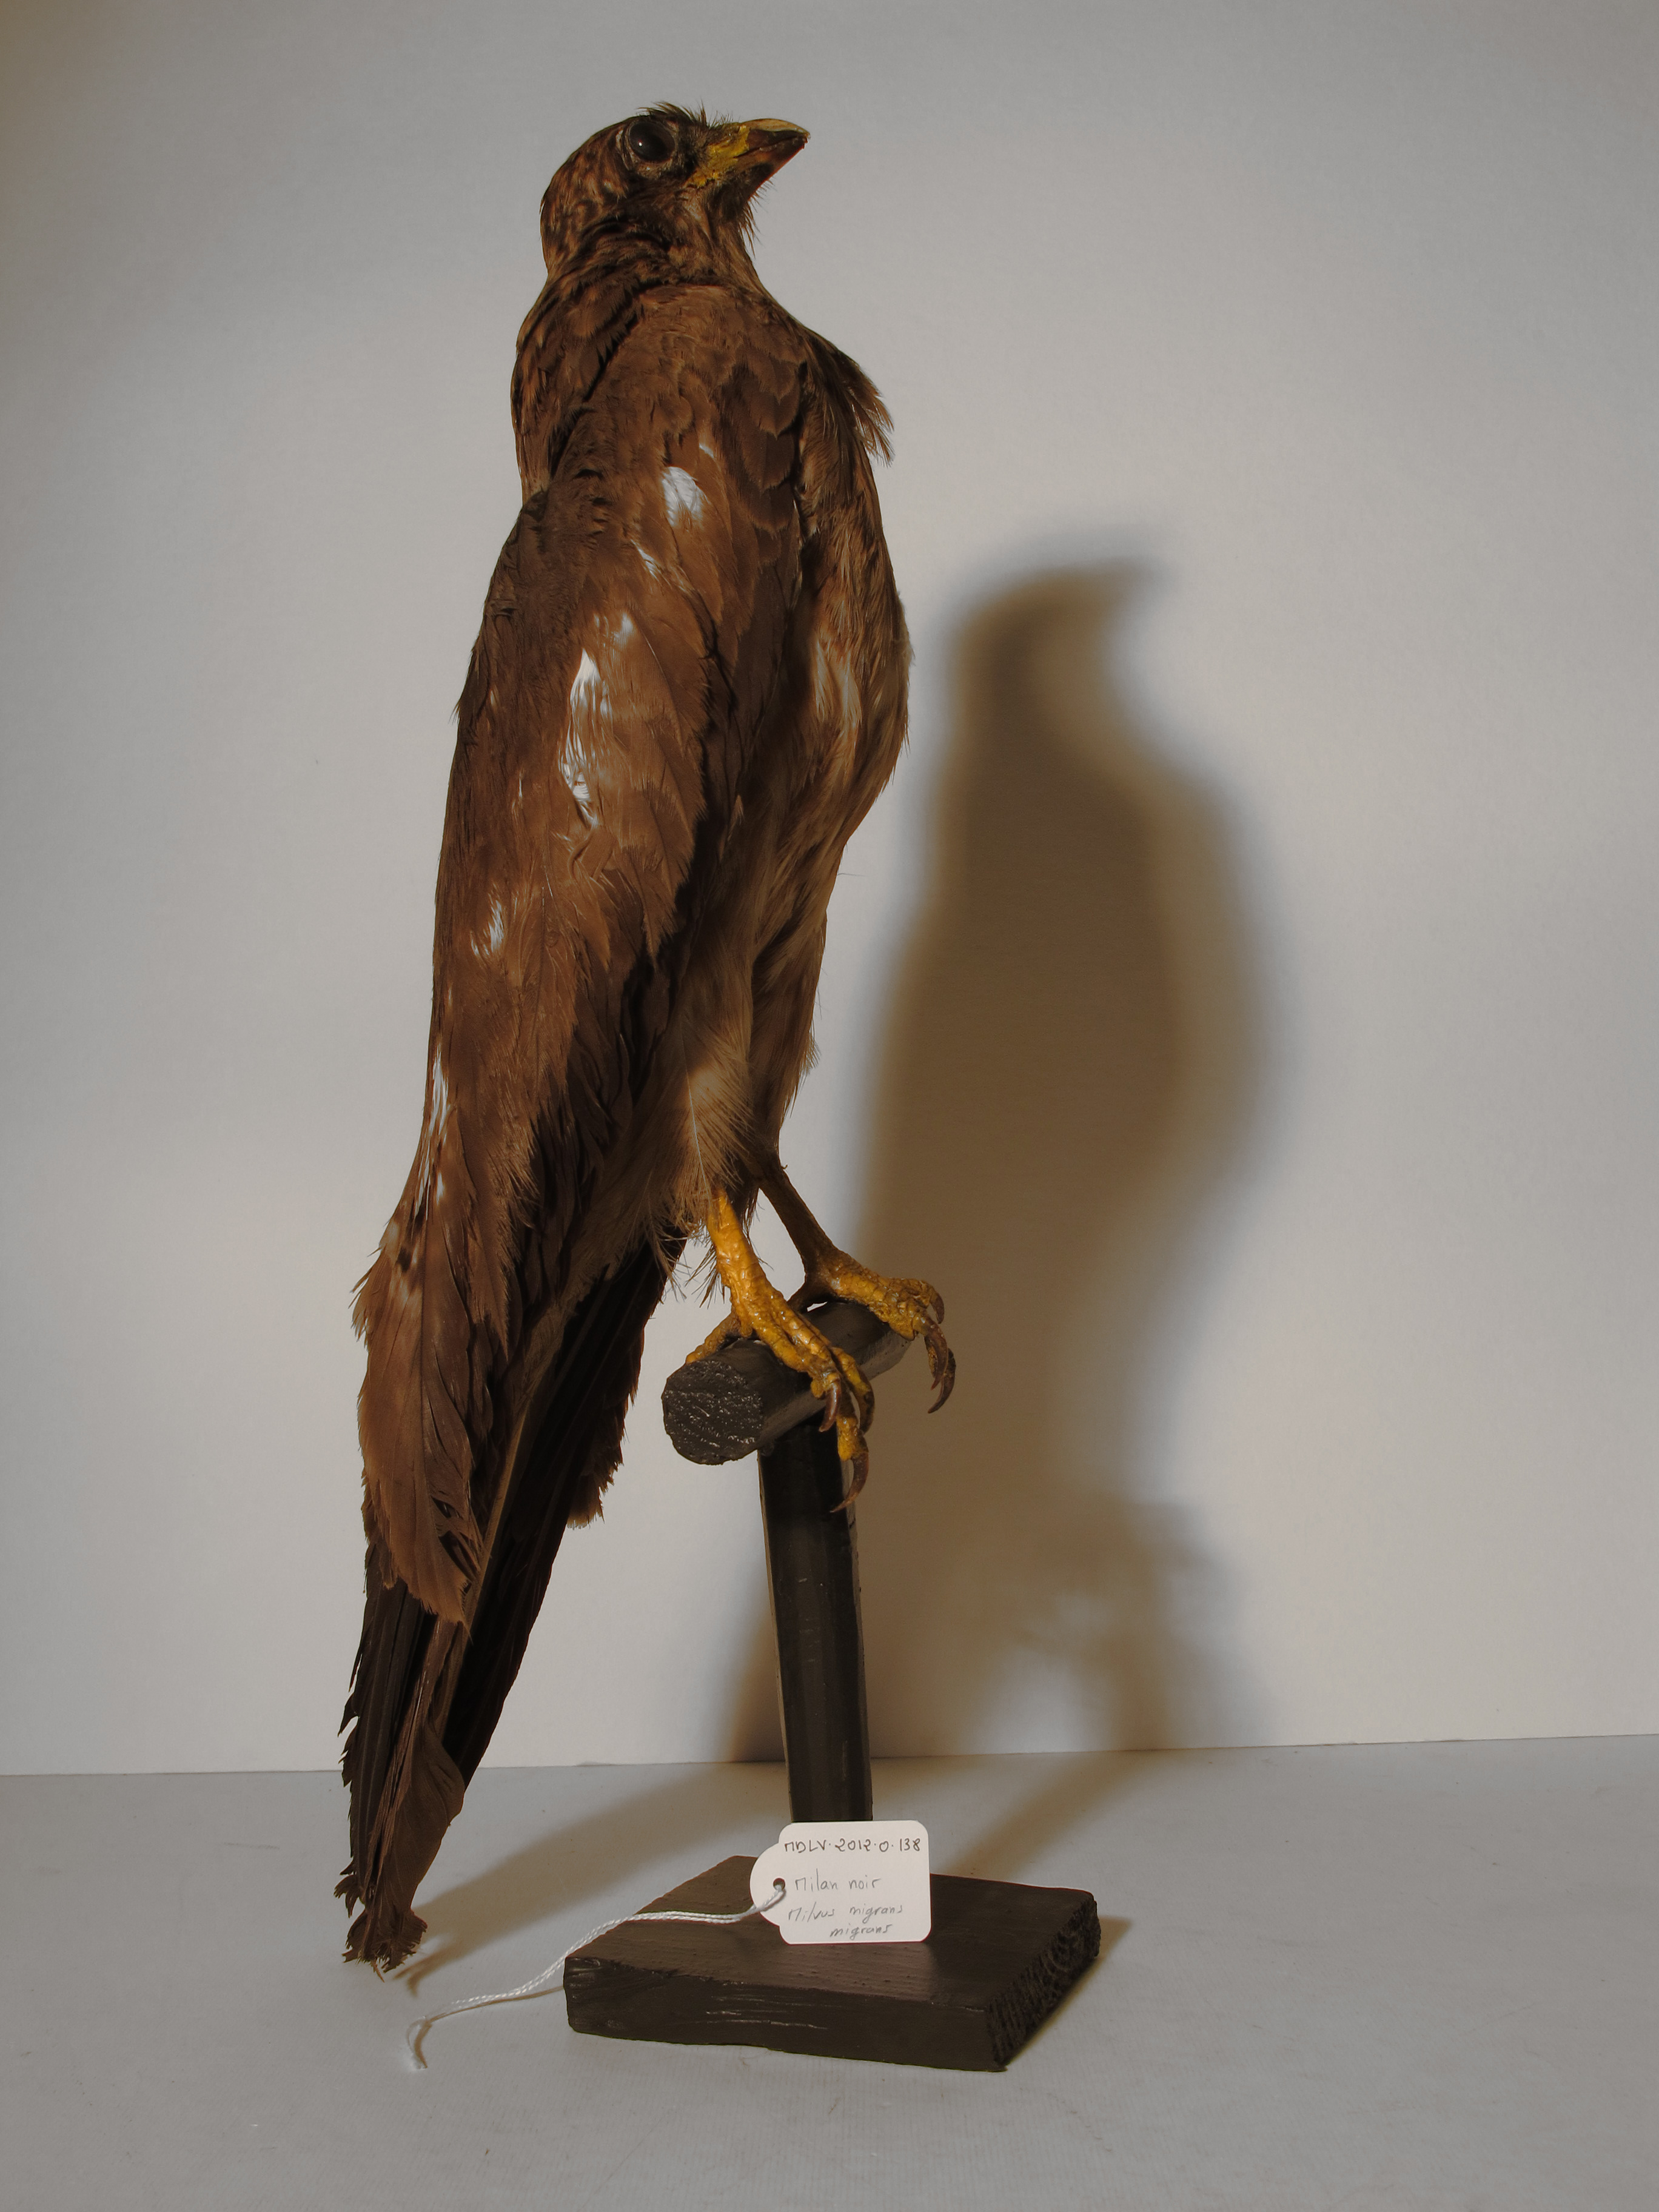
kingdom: Animalia
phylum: Chordata
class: Aves
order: Accipitriformes
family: Accipitridae
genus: Milvus
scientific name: Milvus migrans
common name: Black Kite
